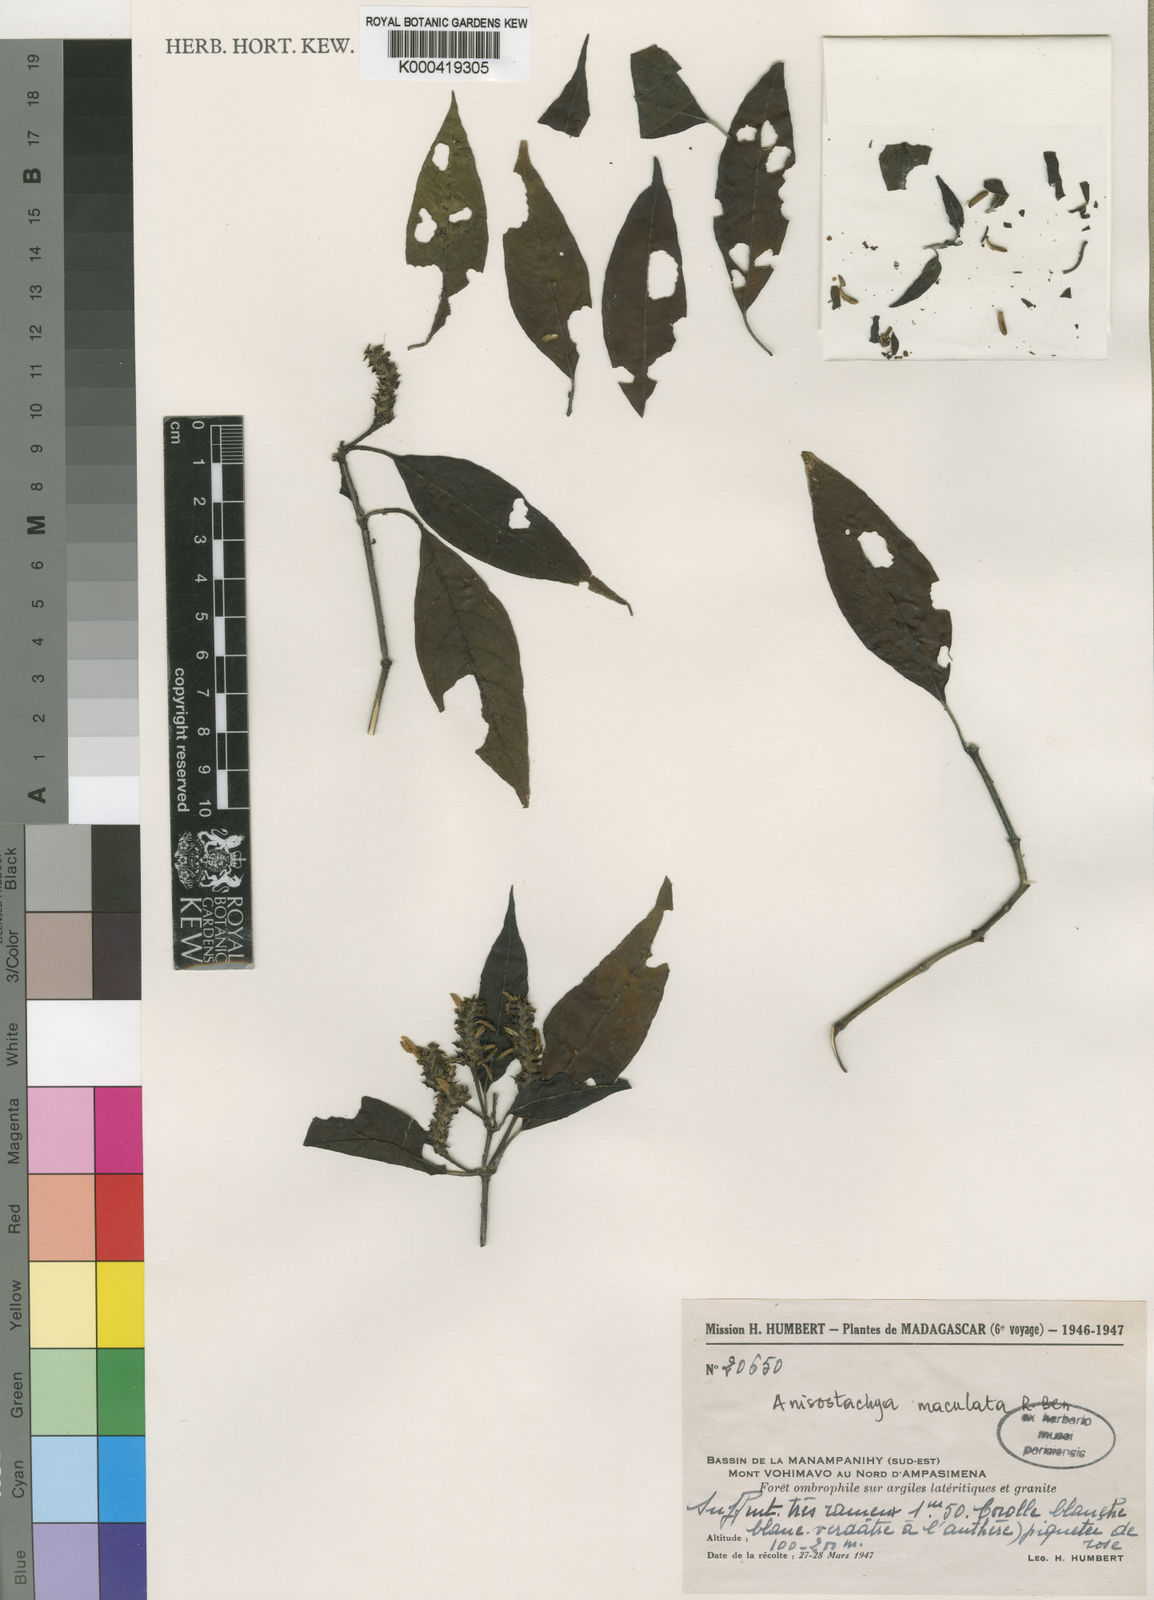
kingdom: Plantae
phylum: Tracheophyta
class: Magnoliopsida
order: Lamiales
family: Acanthaceae
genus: Asystasia
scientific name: Asystasia trichotogyne
